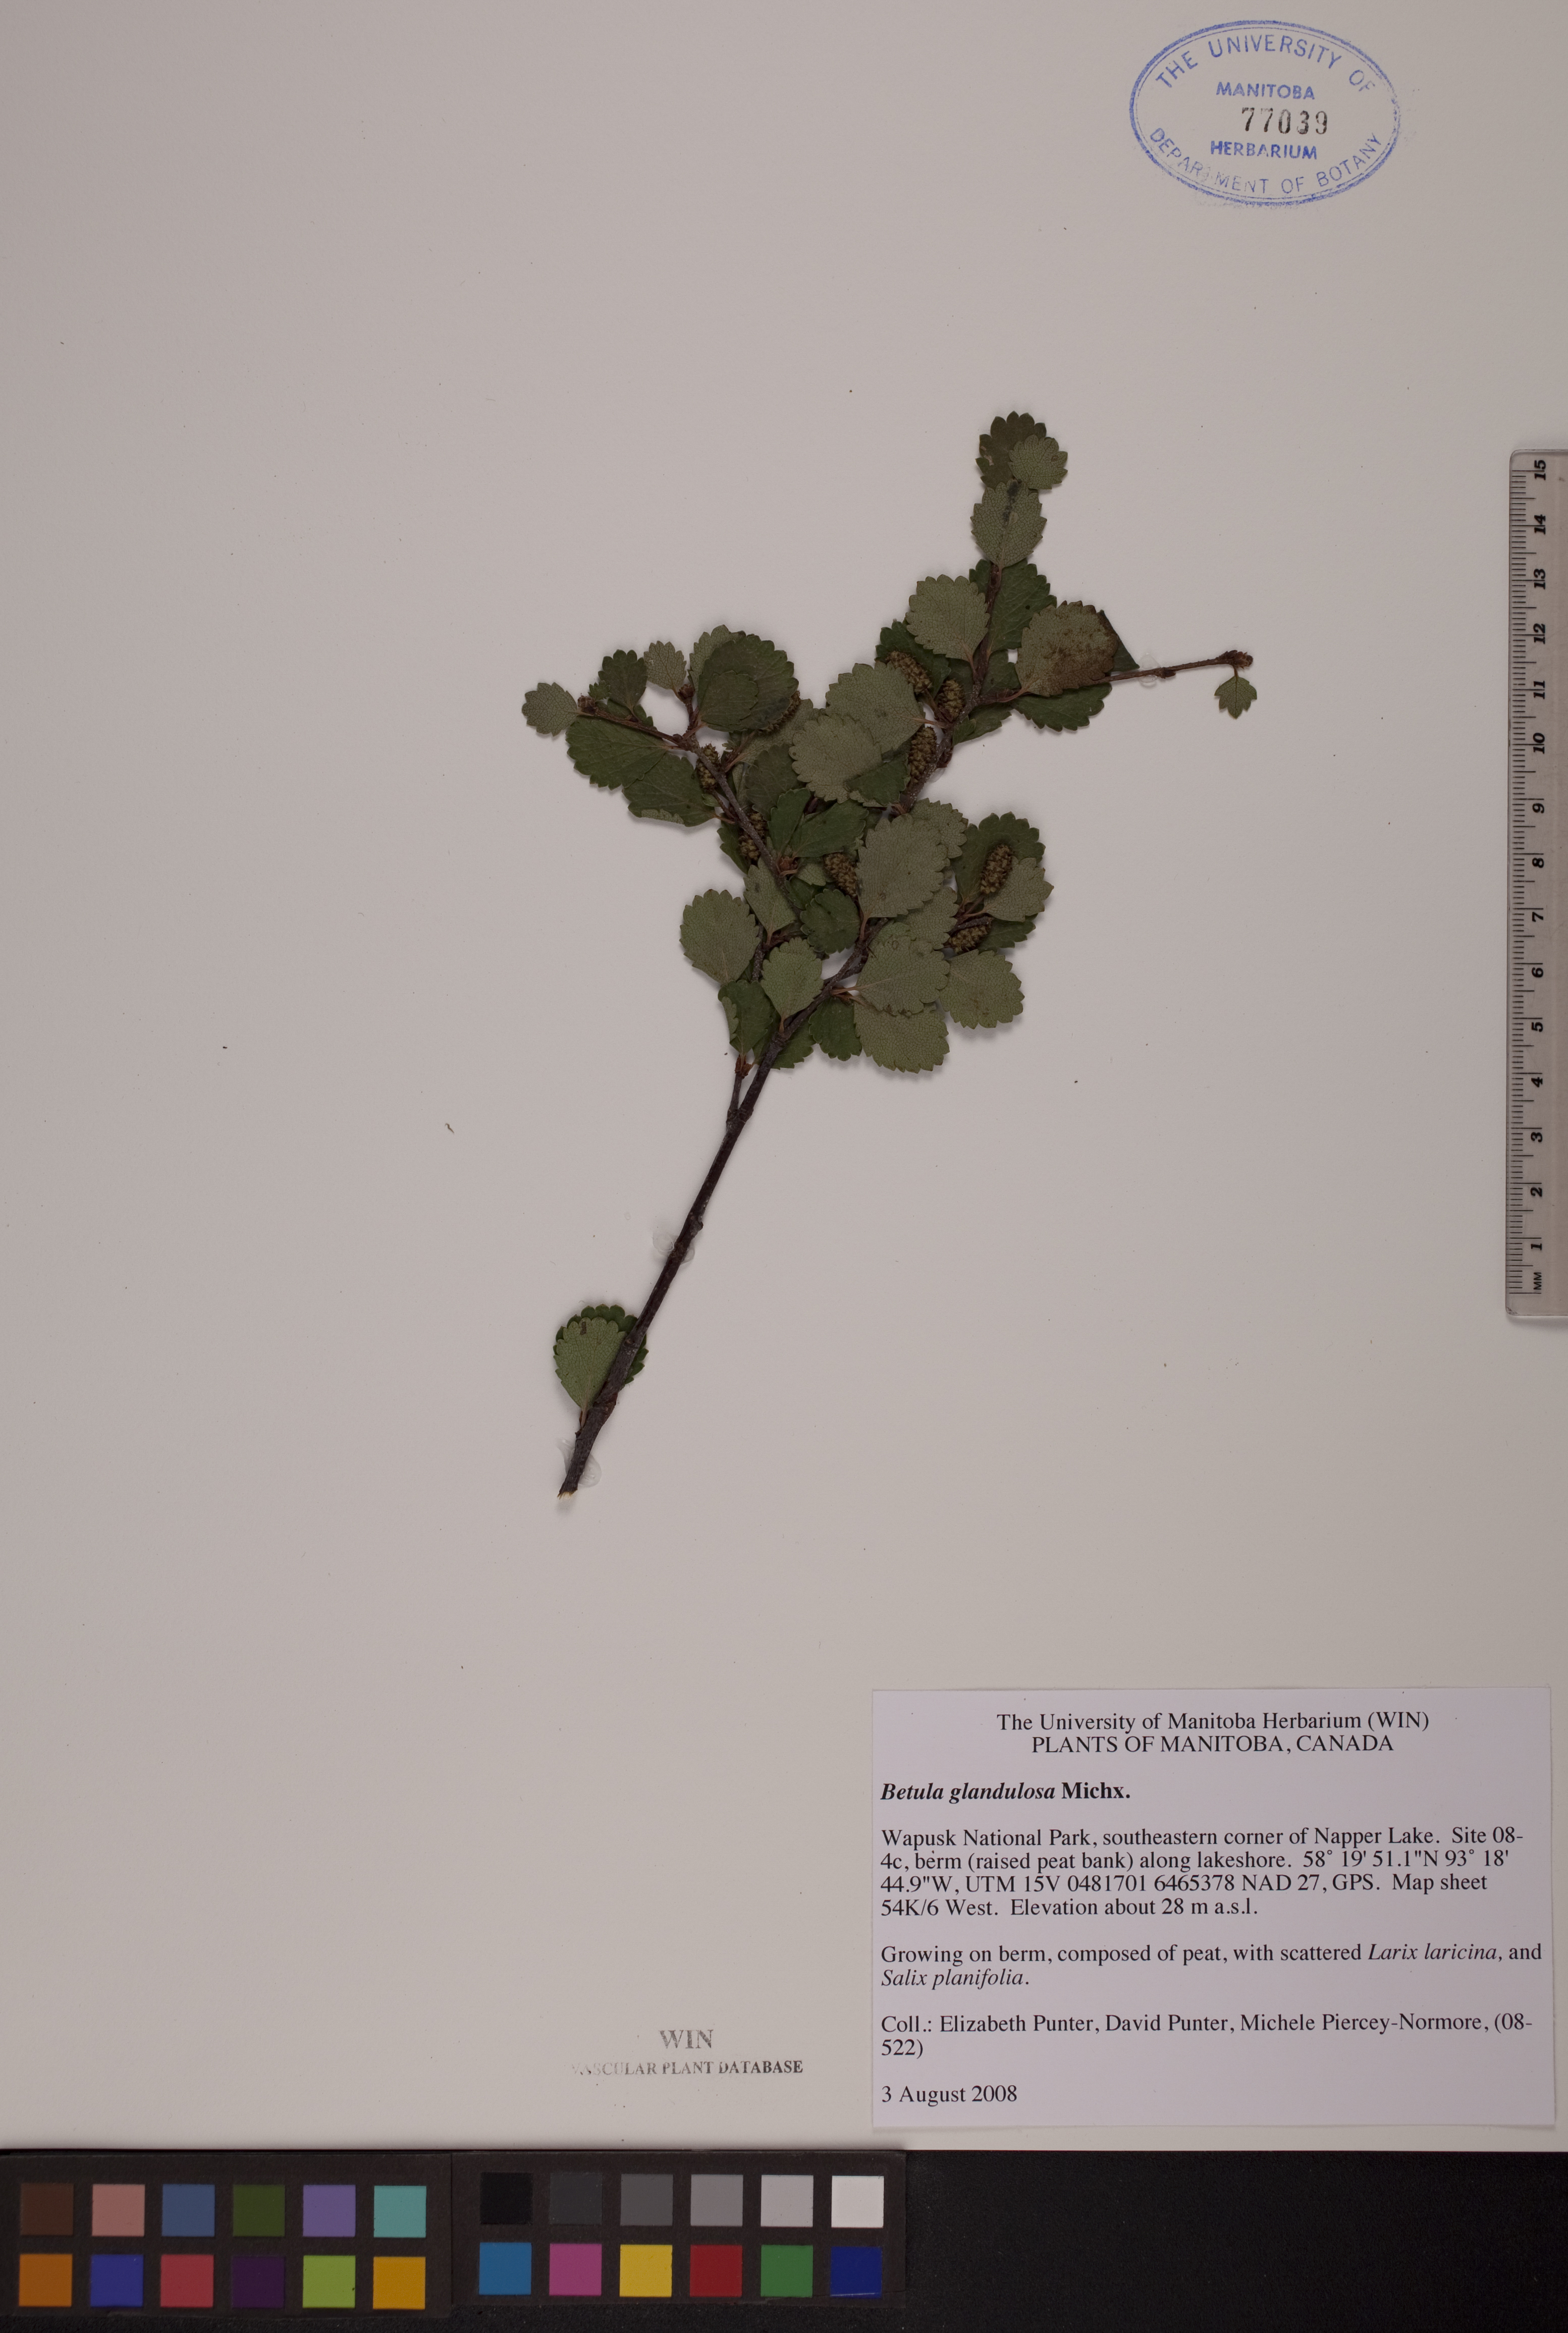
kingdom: Plantae
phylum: Tracheophyta
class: Magnoliopsida
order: Fagales
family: Betulaceae
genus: Betula
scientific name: Betula glandulosa
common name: Dwarf birch
